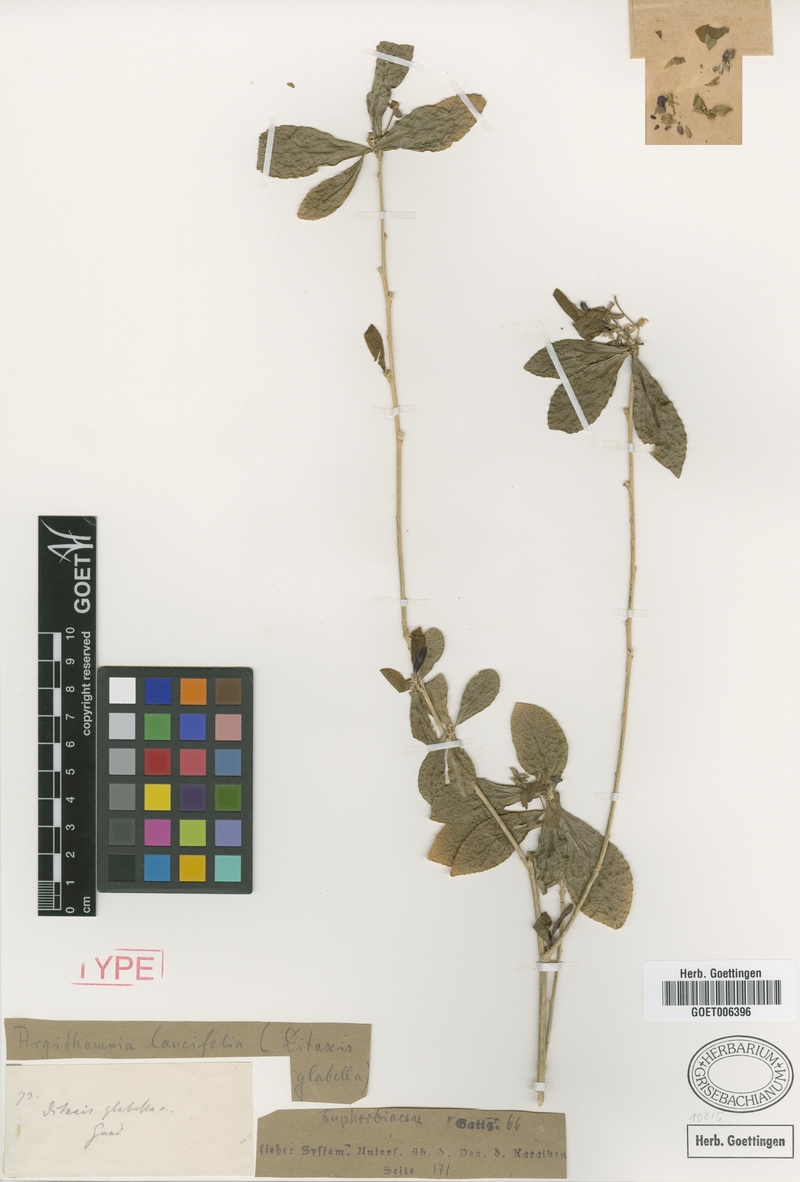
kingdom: Plantae
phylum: Tracheophyta
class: Magnoliopsida
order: Malpighiales
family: Euphorbiaceae
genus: Ditaxis
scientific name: Ditaxis polygama
